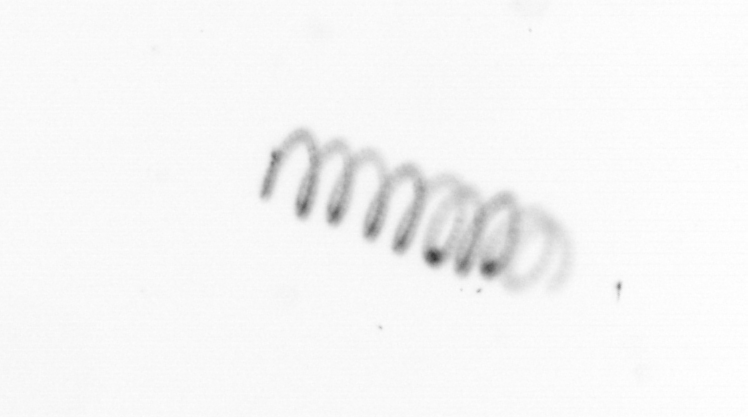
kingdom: Chromista
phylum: Ochrophyta
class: Bacillariophyceae
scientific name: Bacillariophyceae
